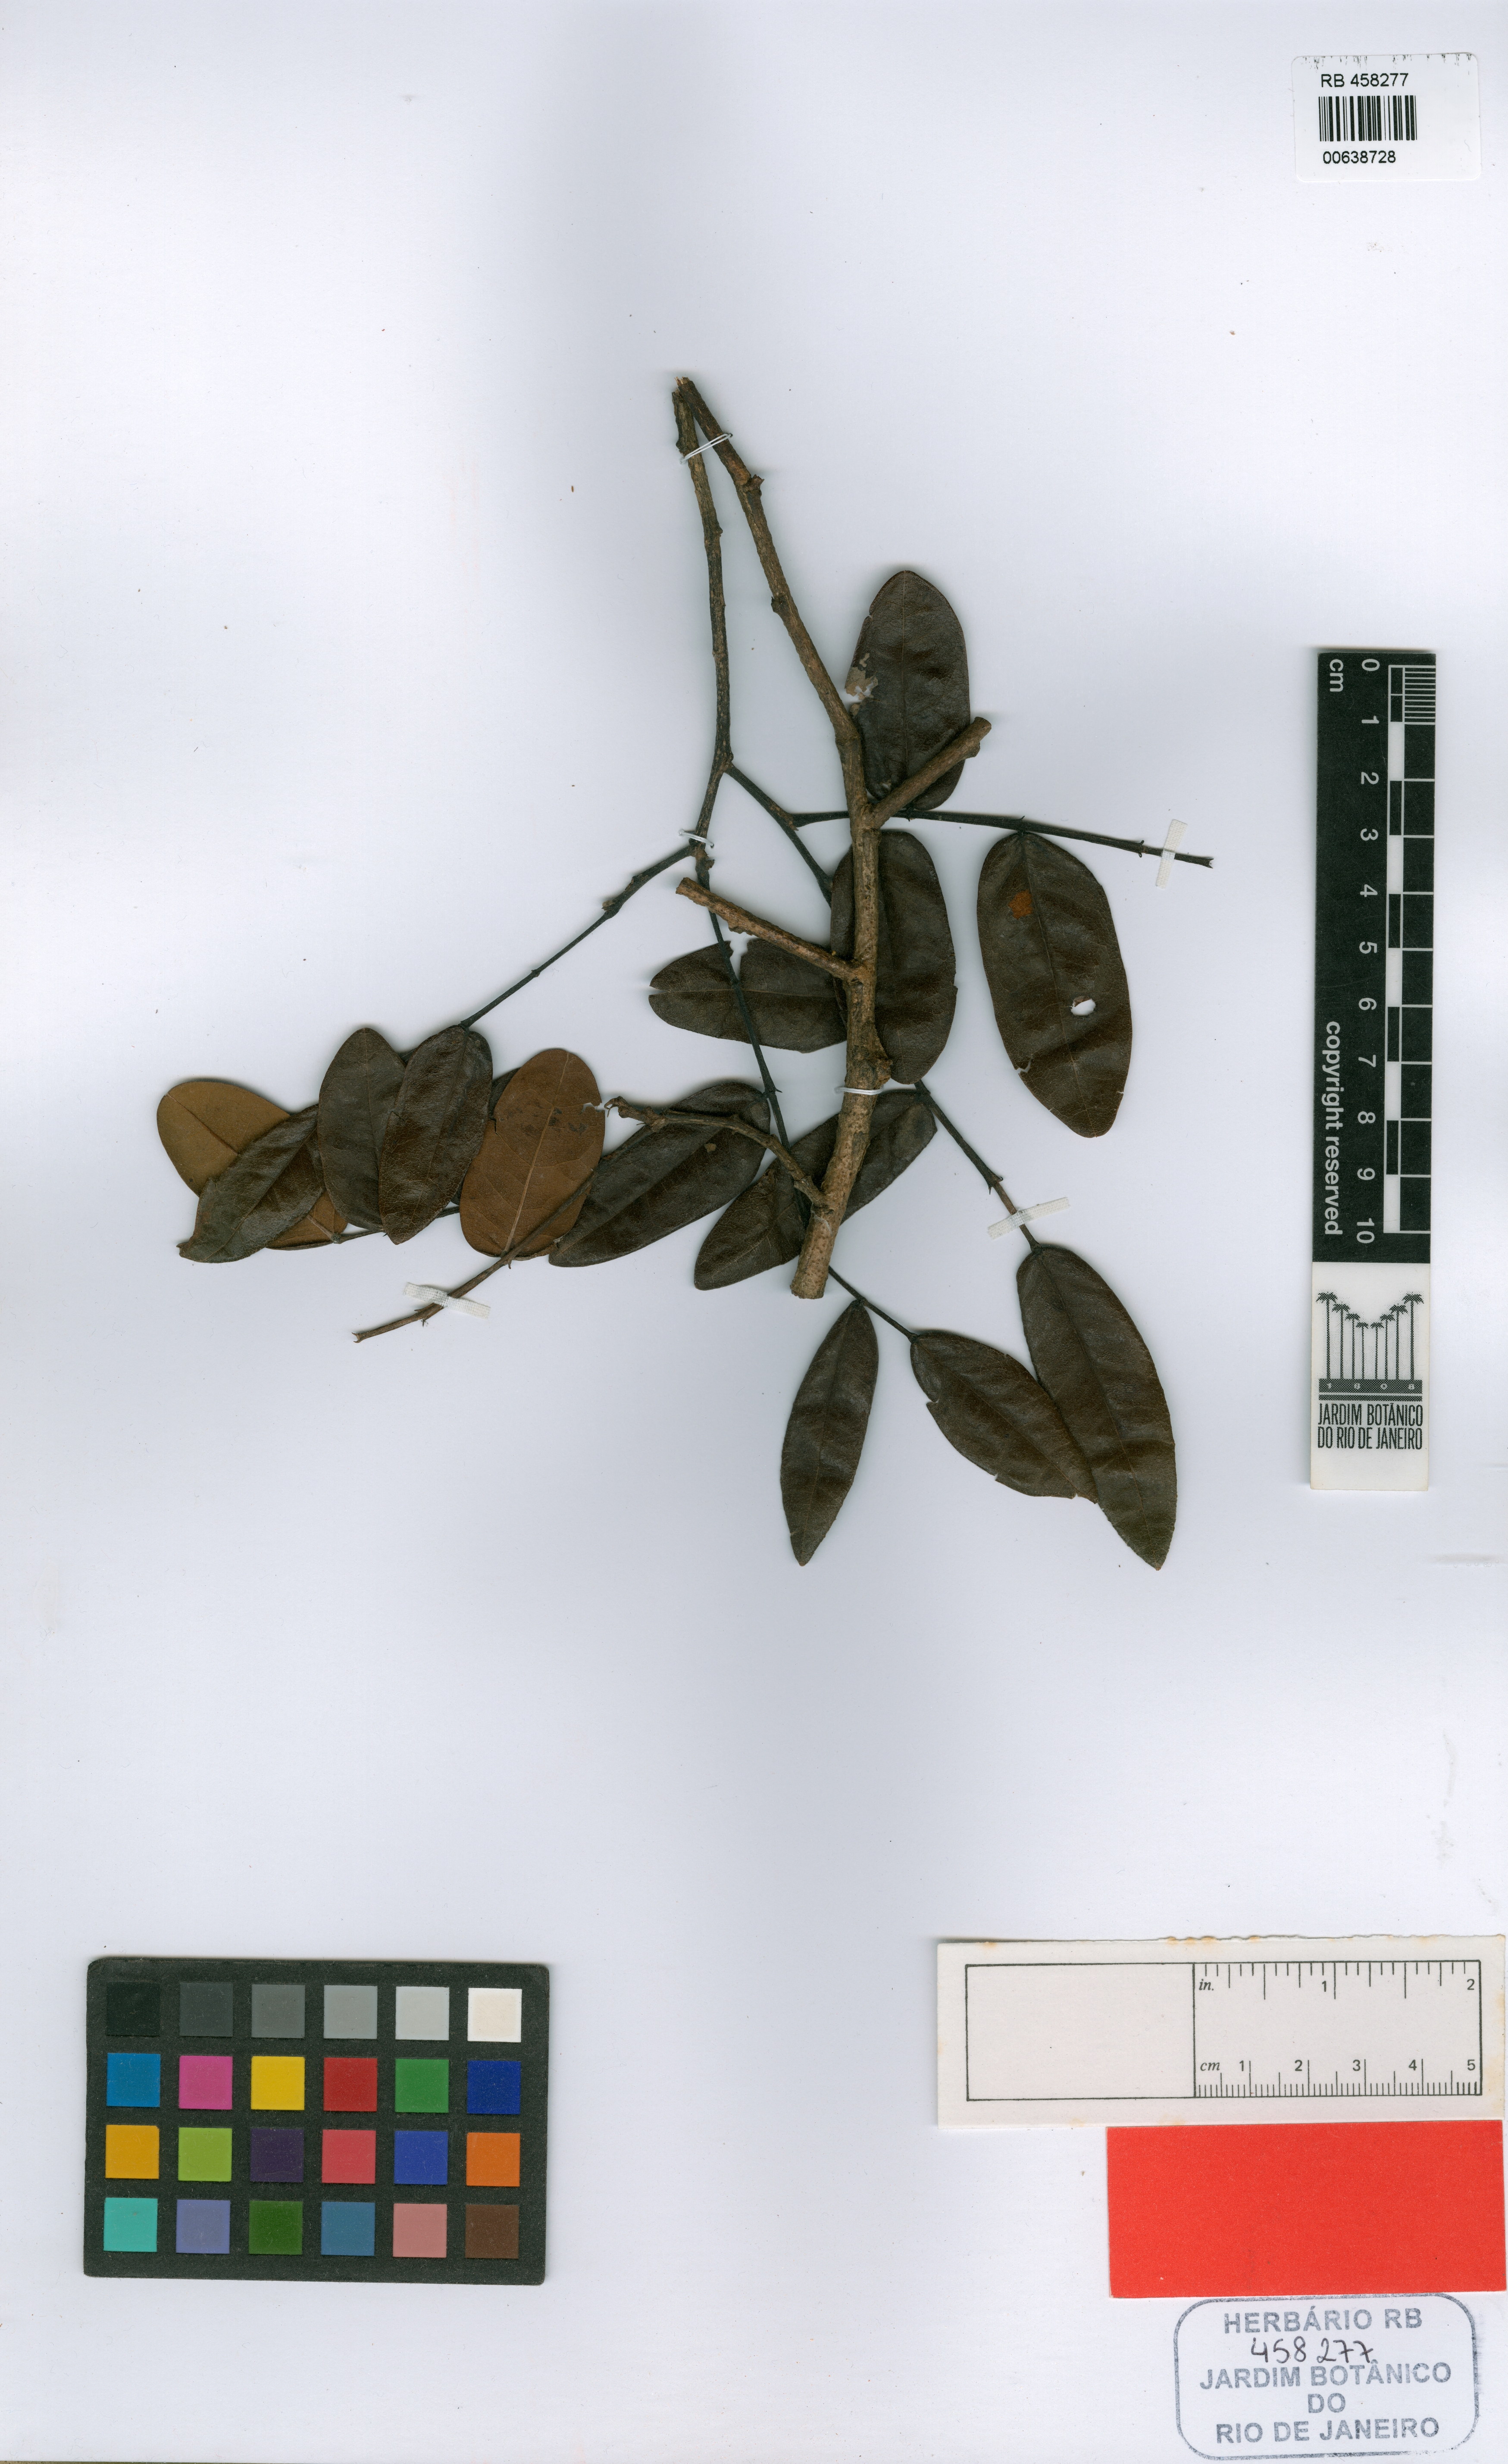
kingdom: Plantae
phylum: Tracheophyta
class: Magnoliopsida
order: Fabales
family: Fabaceae
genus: Swartzia
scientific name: Swartzia arenophila
